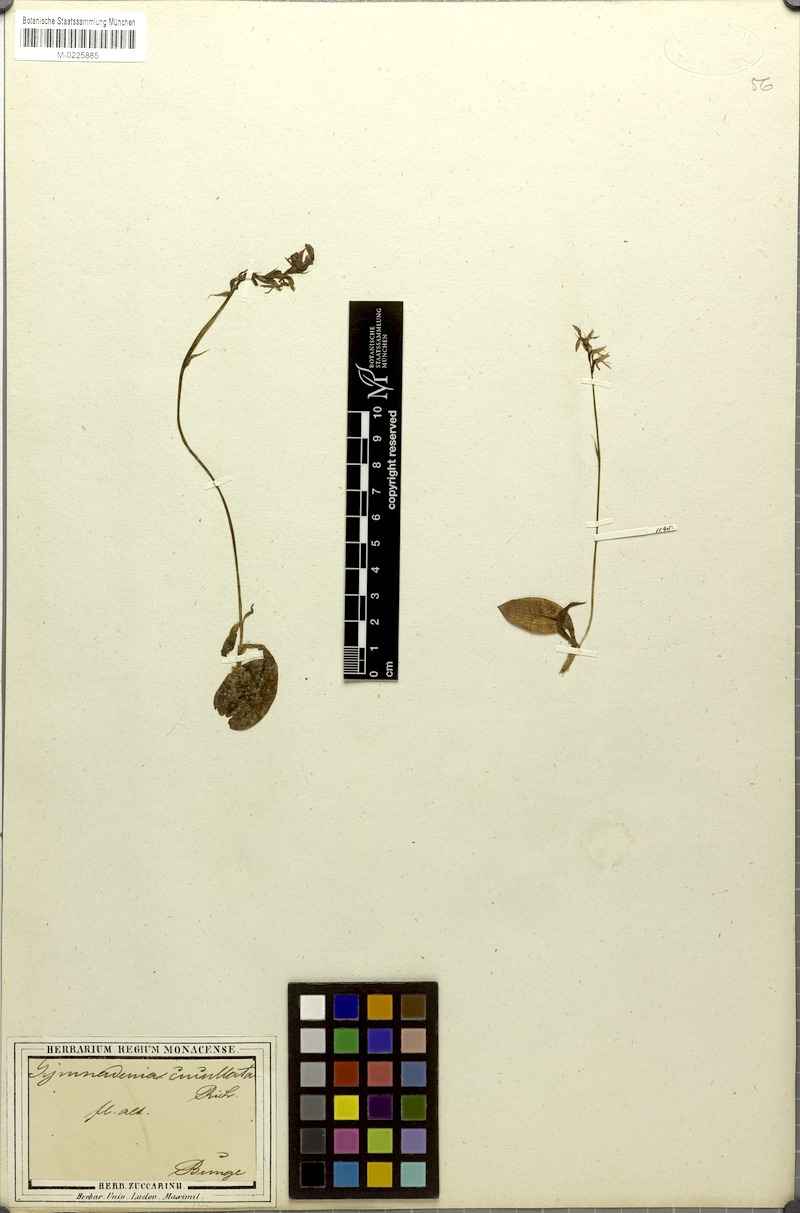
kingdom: Plantae
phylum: Tracheophyta
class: Liliopsida
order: Asparagales
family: Orchidaceae
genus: Hemipilia
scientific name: Hemipilia cucullata
